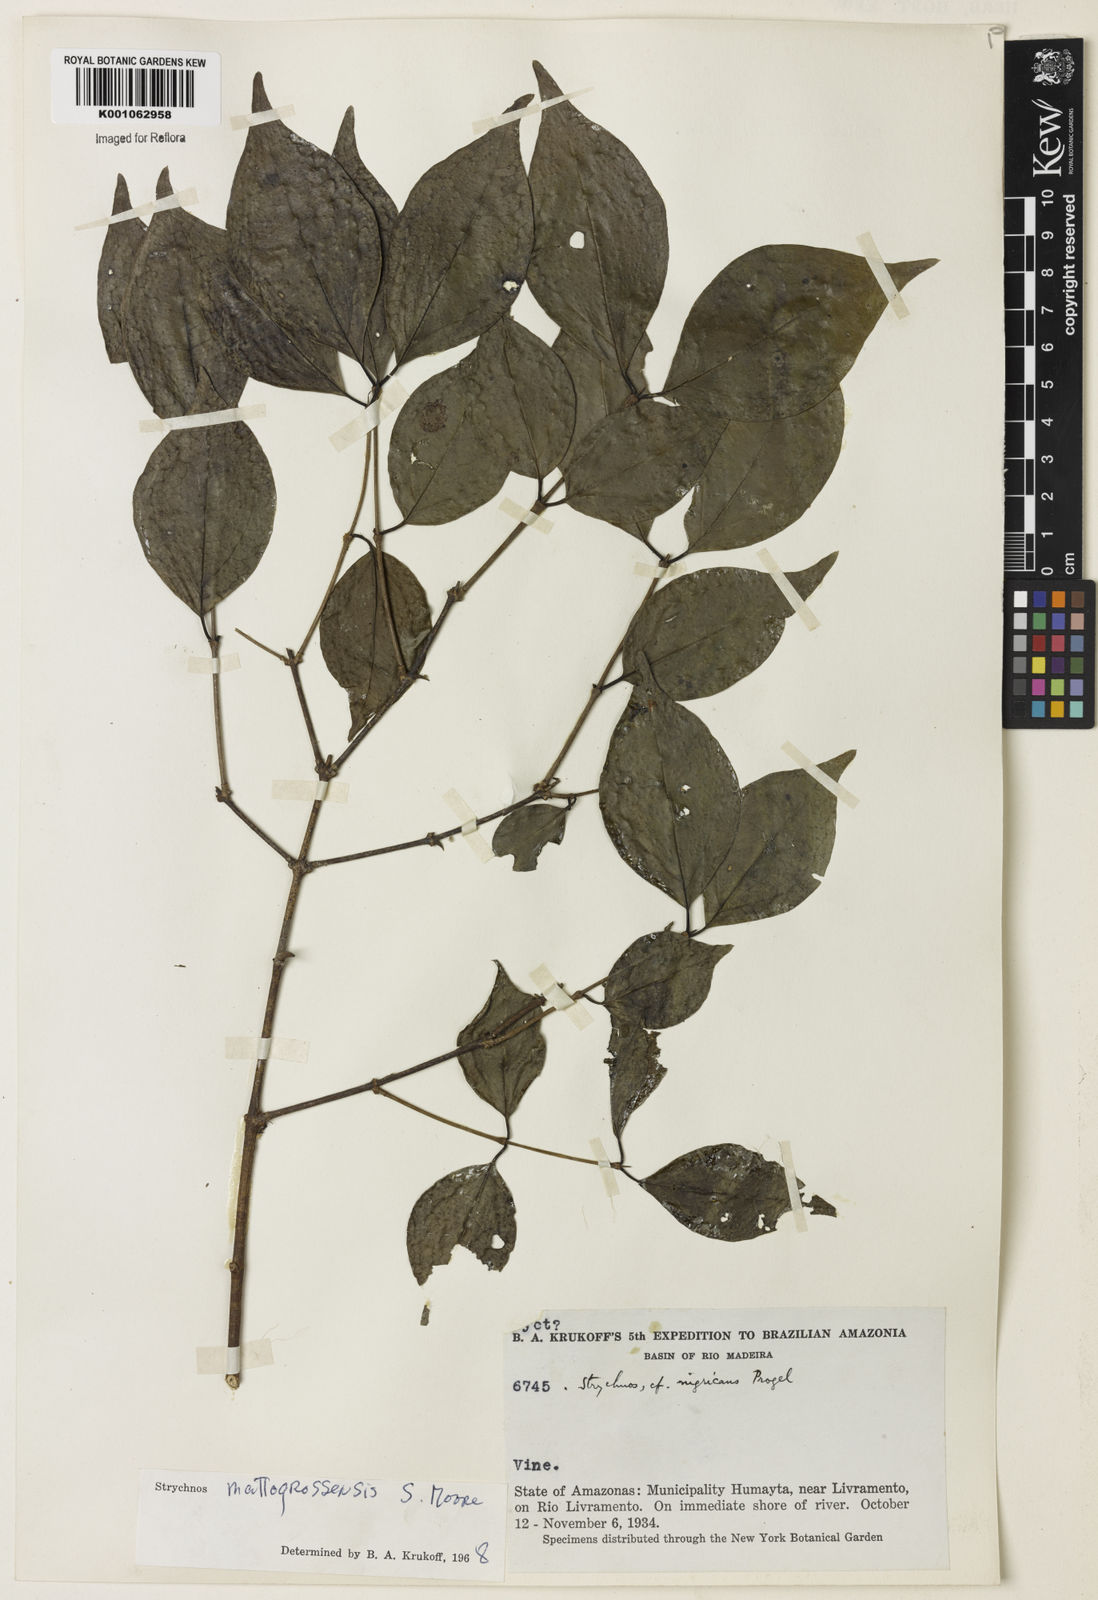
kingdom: Plantae
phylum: Tracheophyta
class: Magnoliopsida
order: Gentianales
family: Loganiaceae
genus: Strychnos
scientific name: Strychnos mattogrossensis
